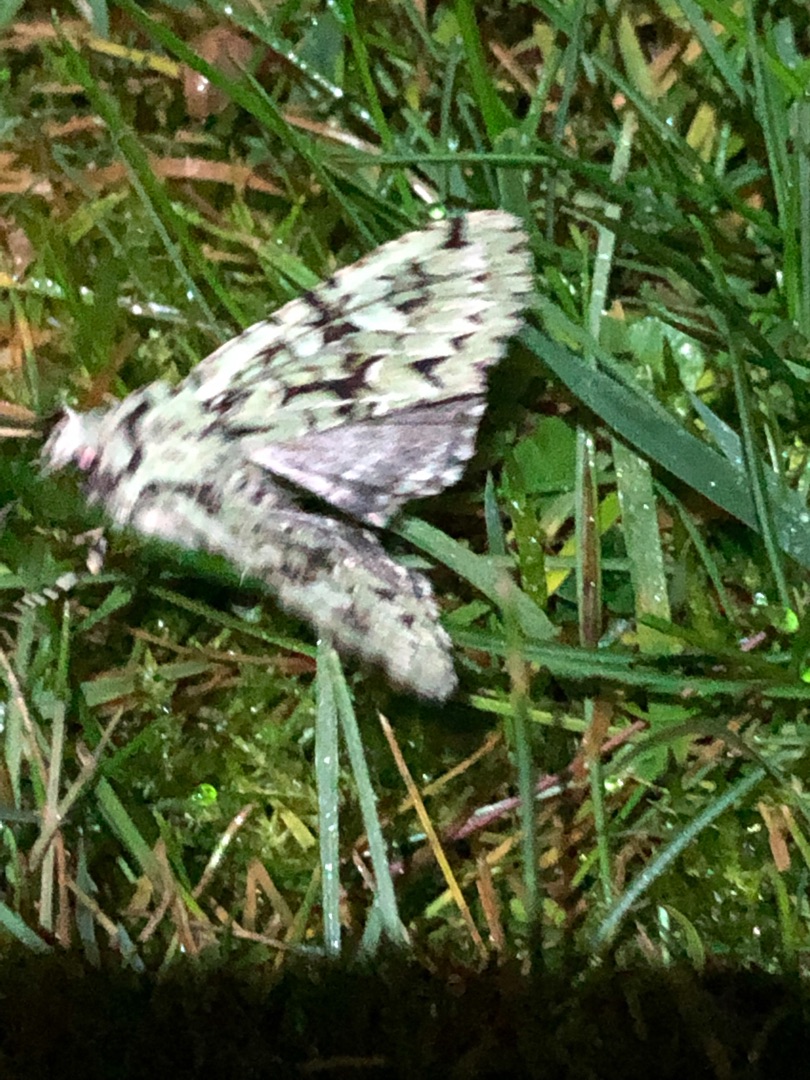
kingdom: Animalia
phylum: Arthropoda
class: Insecta
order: Lepidoptera
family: Noctuidae
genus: Griposia
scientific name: Griposia aprilina
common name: Aprilugle
